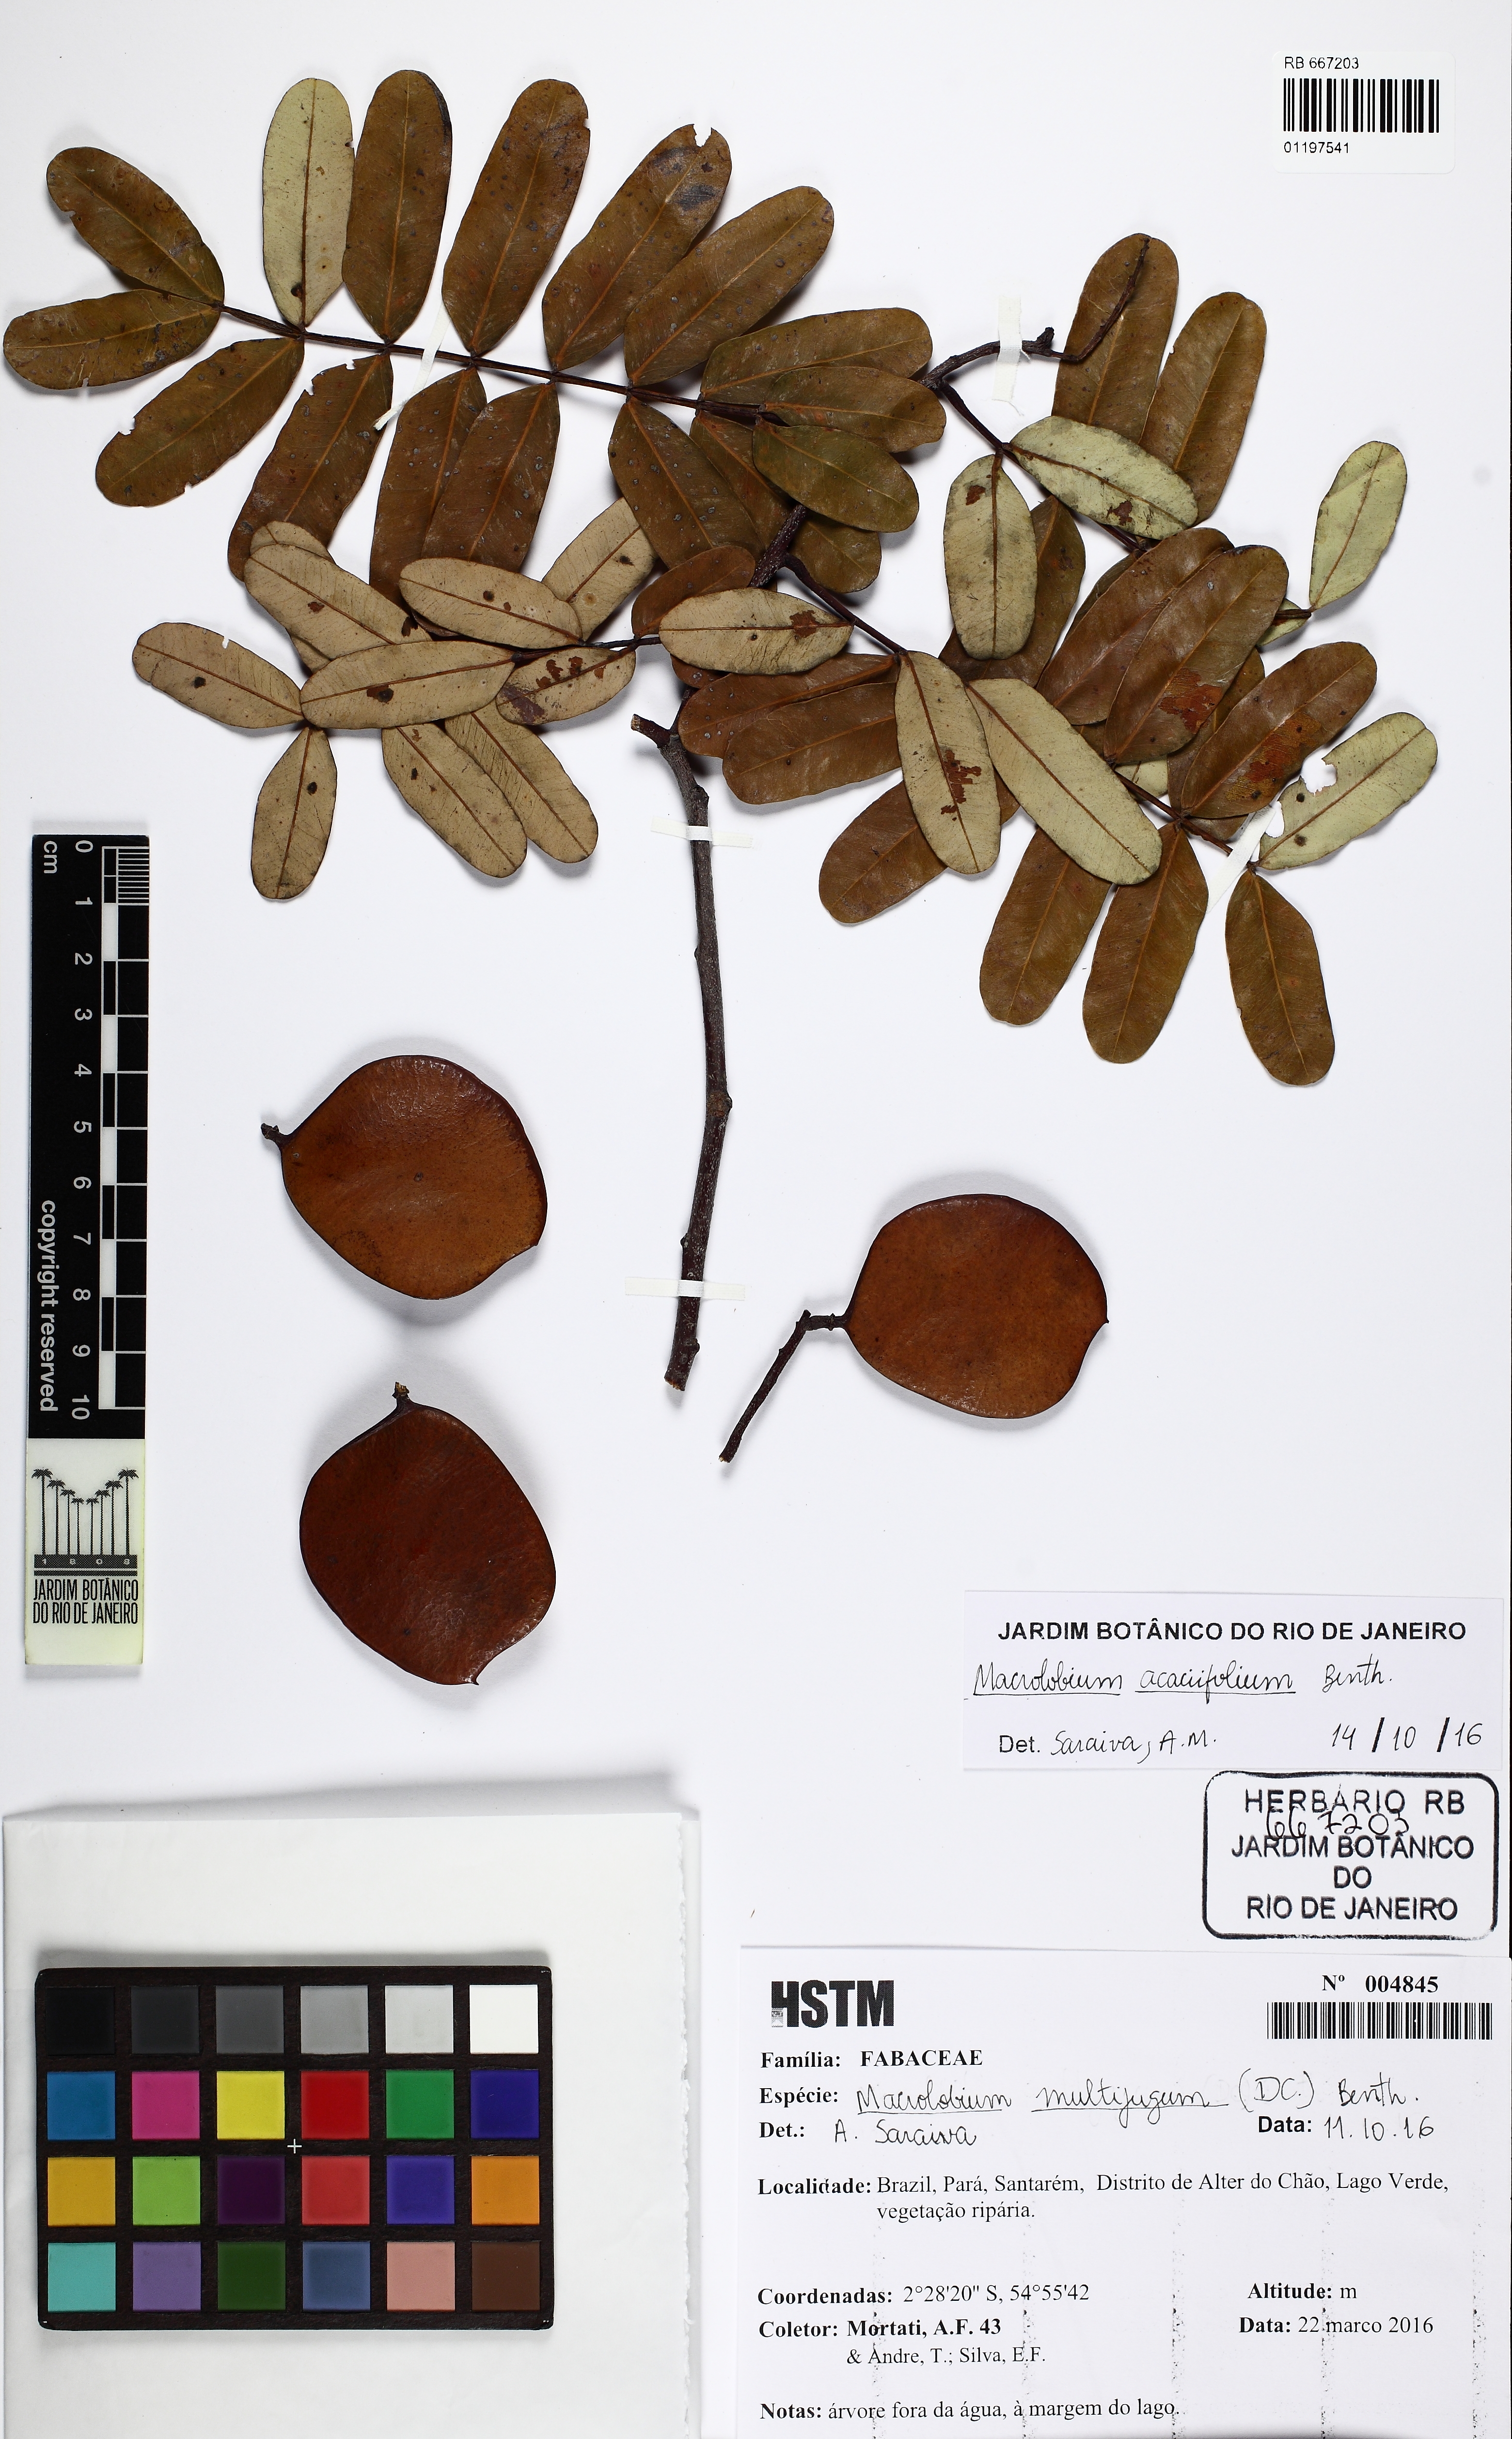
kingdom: Plantae
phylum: Tracheophyta
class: Magnoliopsida
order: Fabales
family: Fabaceae
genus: Macrolobium
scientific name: Macrolobium acaciifolium
